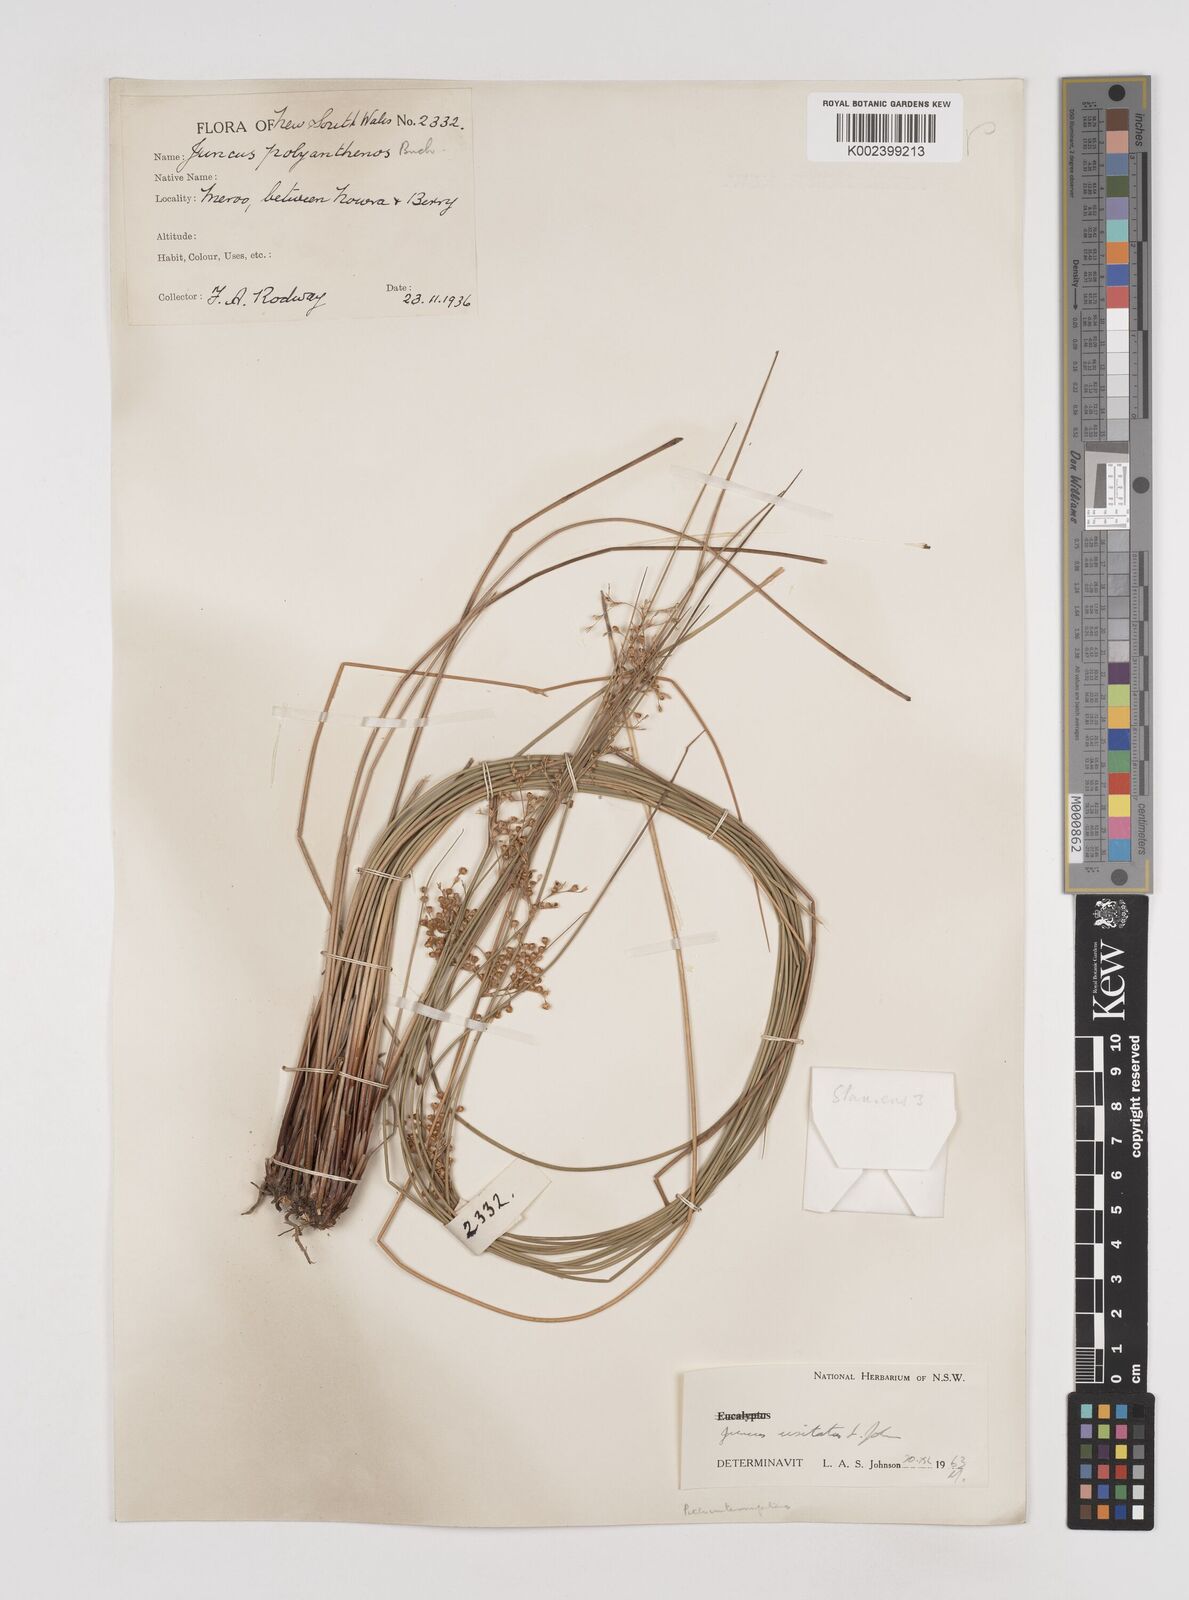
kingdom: Plantae
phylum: Tracheophyta
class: Liliopsida
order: Poales
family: Juncaceae
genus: Juncus
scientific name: Juncus usitatus
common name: Rush
